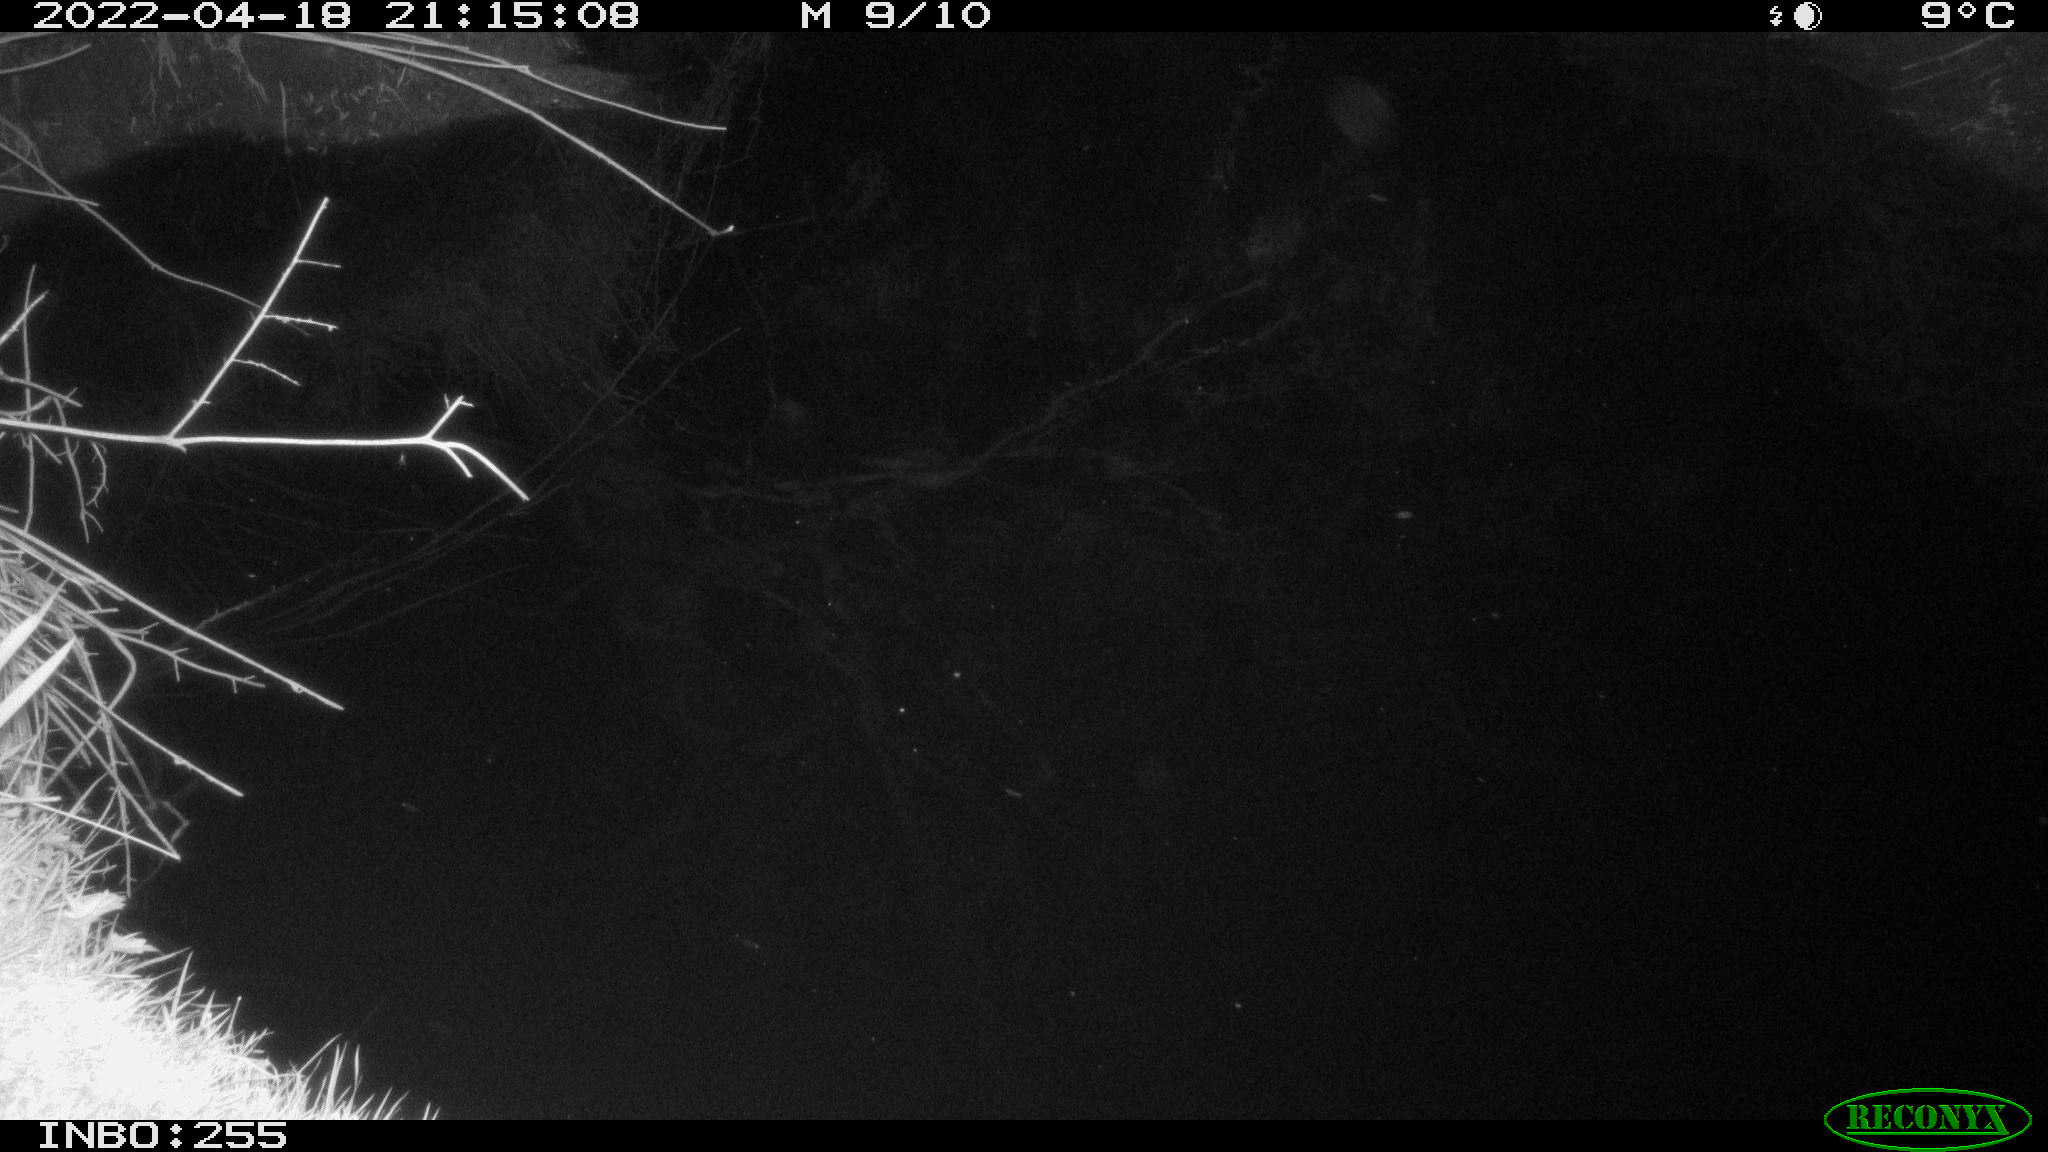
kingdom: Animalia
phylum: Chordata
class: Aves
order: Anseriformes
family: Anatidae
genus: Anas
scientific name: Anas platyrhynchos
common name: Mallard
